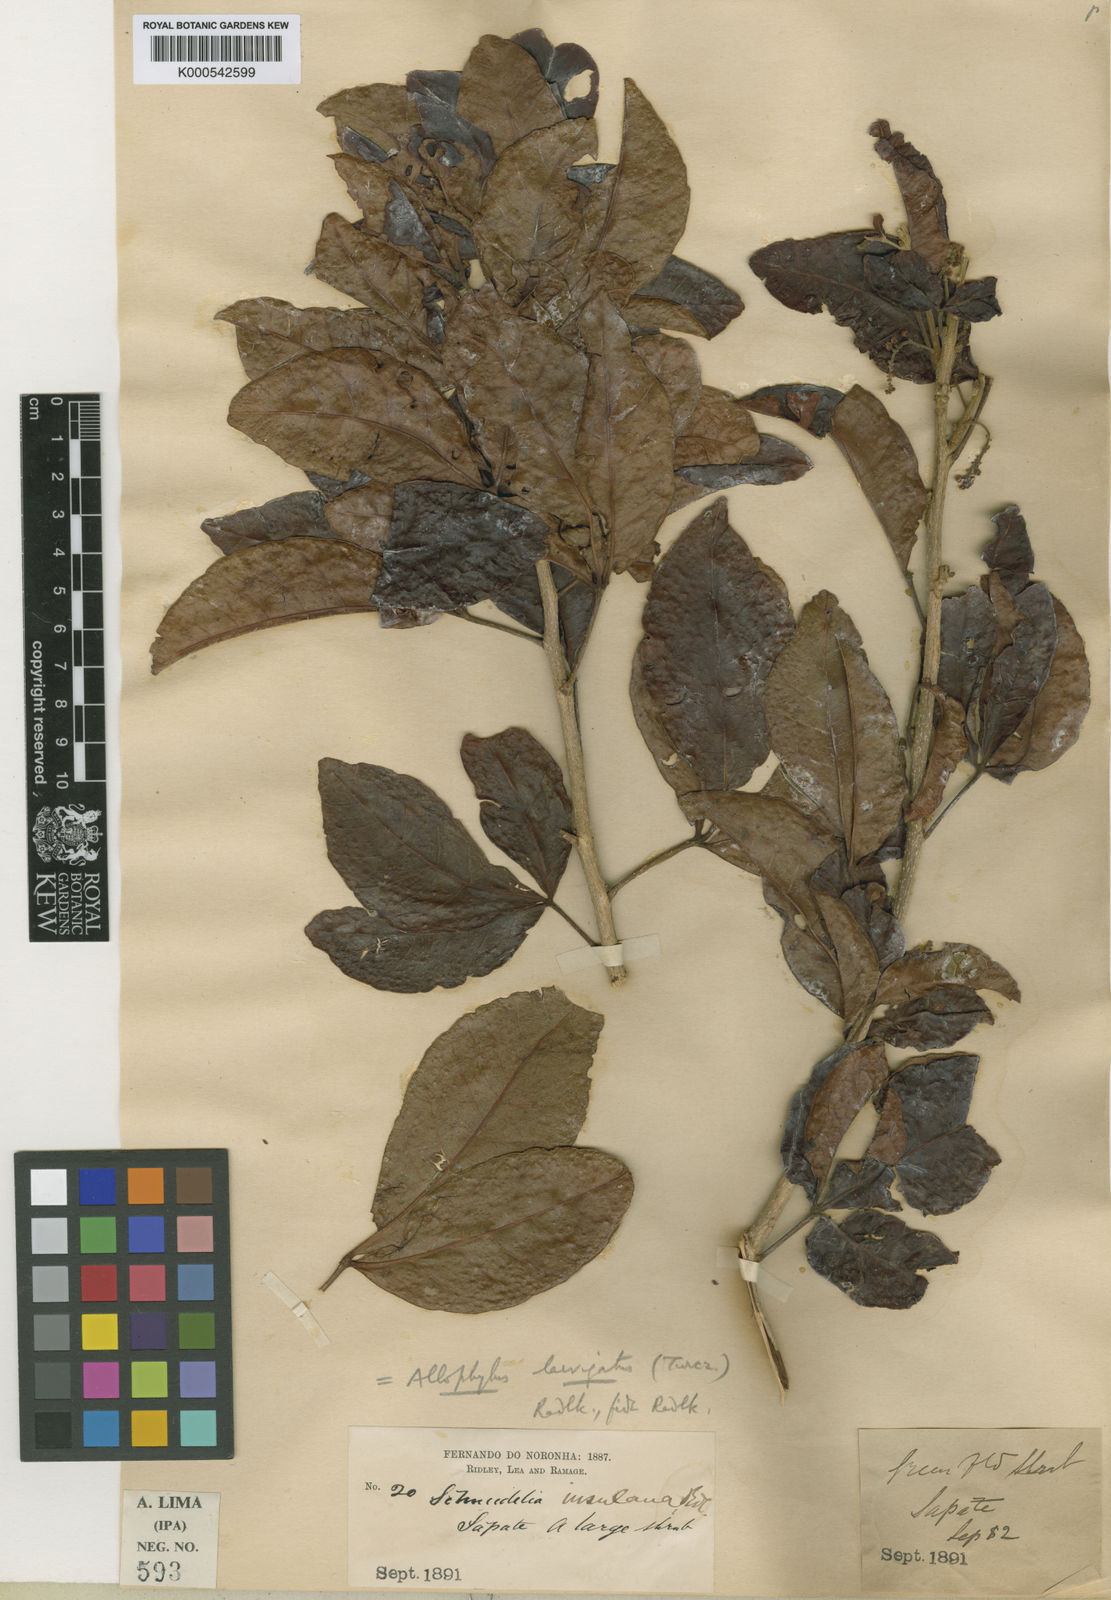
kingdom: Plantae
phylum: Tracheophyta
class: Magnoliopsida
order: Sapindales
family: Sapindaceae
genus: Allophylus
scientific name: Allophylus laevigatus
